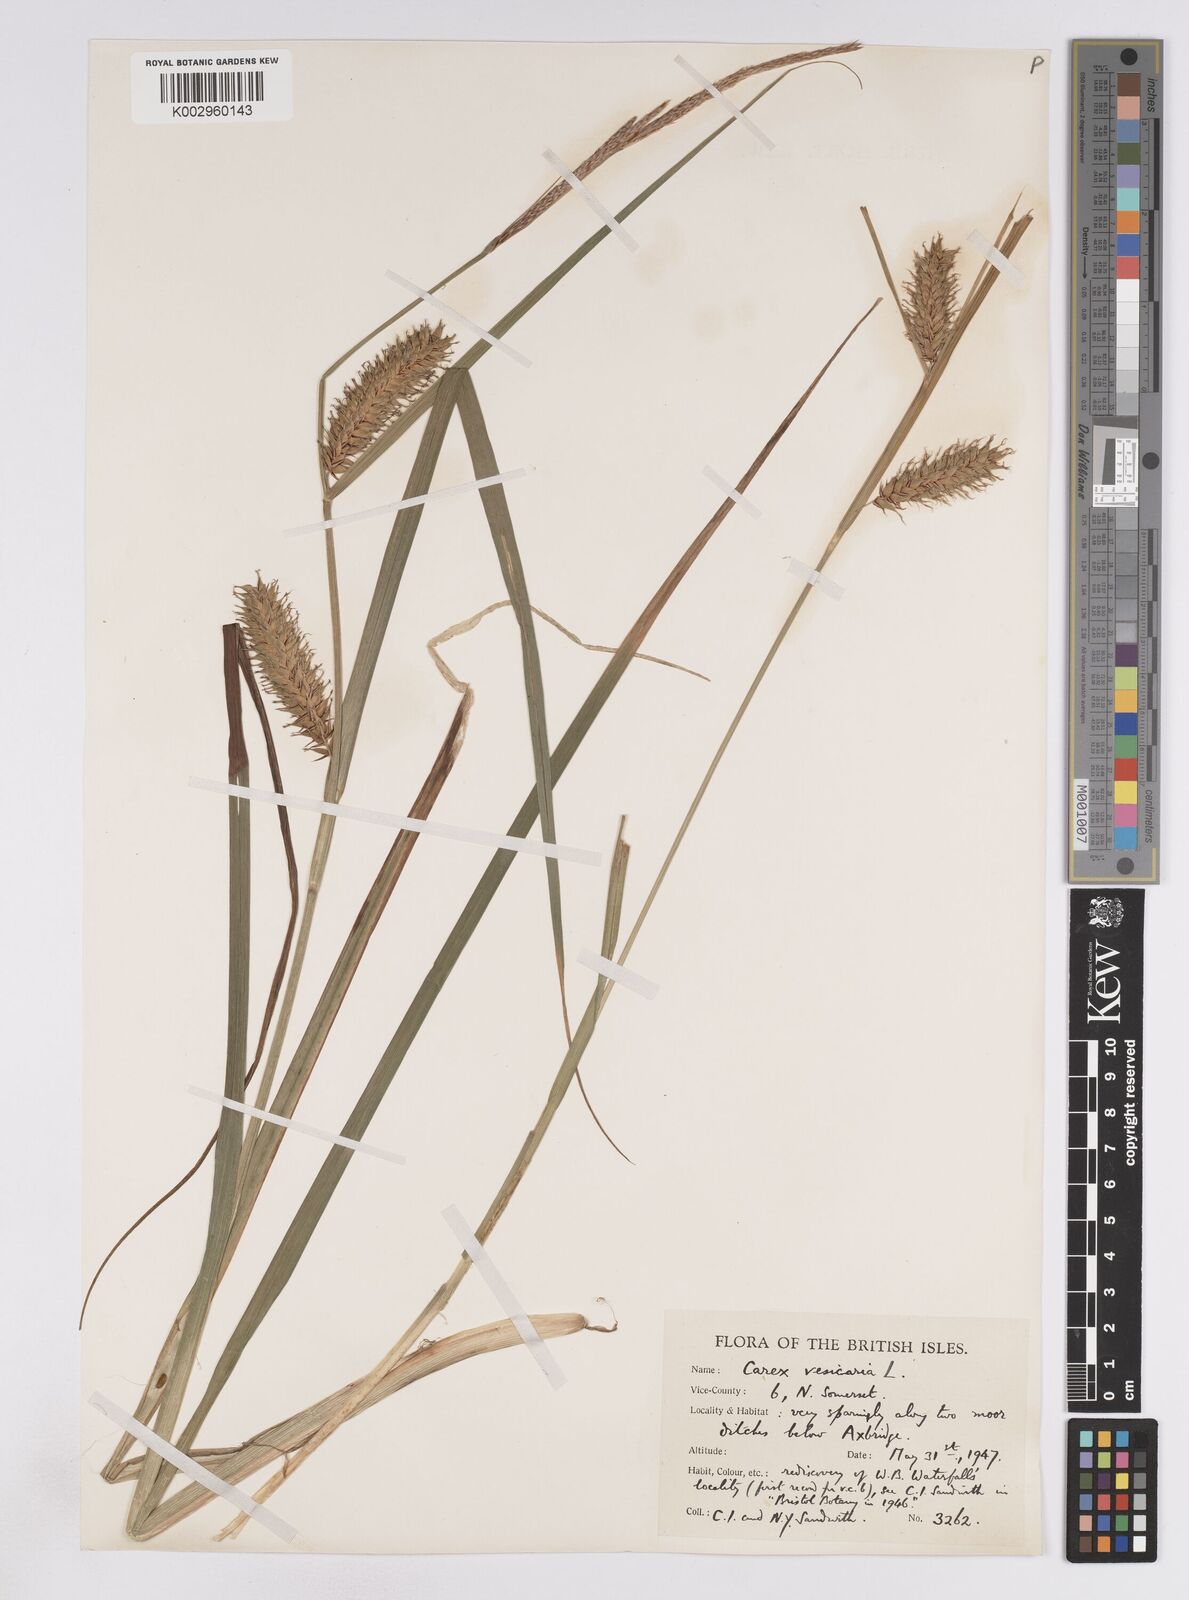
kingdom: Plantae
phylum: Tracheophyta
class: Liliopsida
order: Poales
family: Cyperaceae
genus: Carex
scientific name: Carex vesicaria
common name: Bladder-sedge
